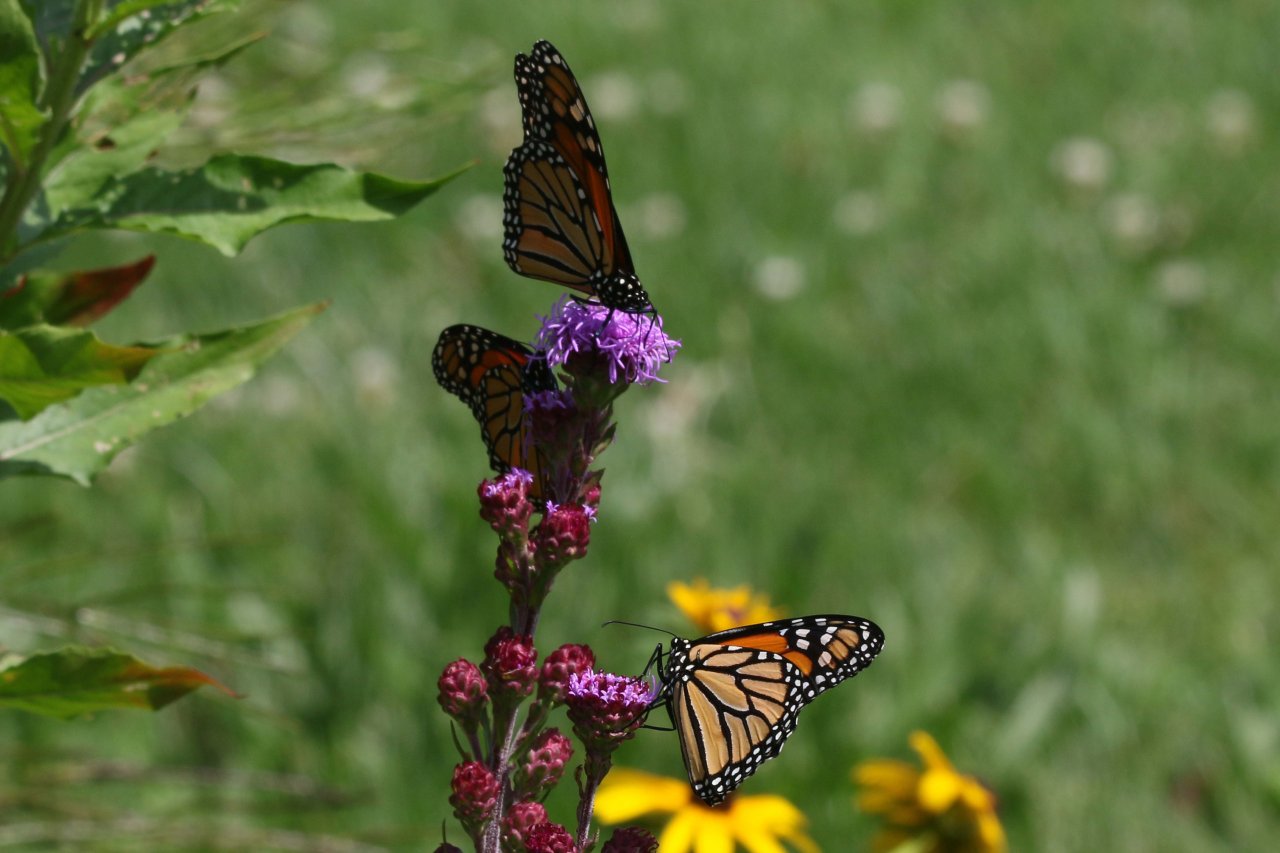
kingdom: Animalia
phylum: Arthropoda
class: Insecta
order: Lepidoptera
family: Nymphalidae
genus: Danaus
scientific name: Danaus plexippus
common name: Monarch
